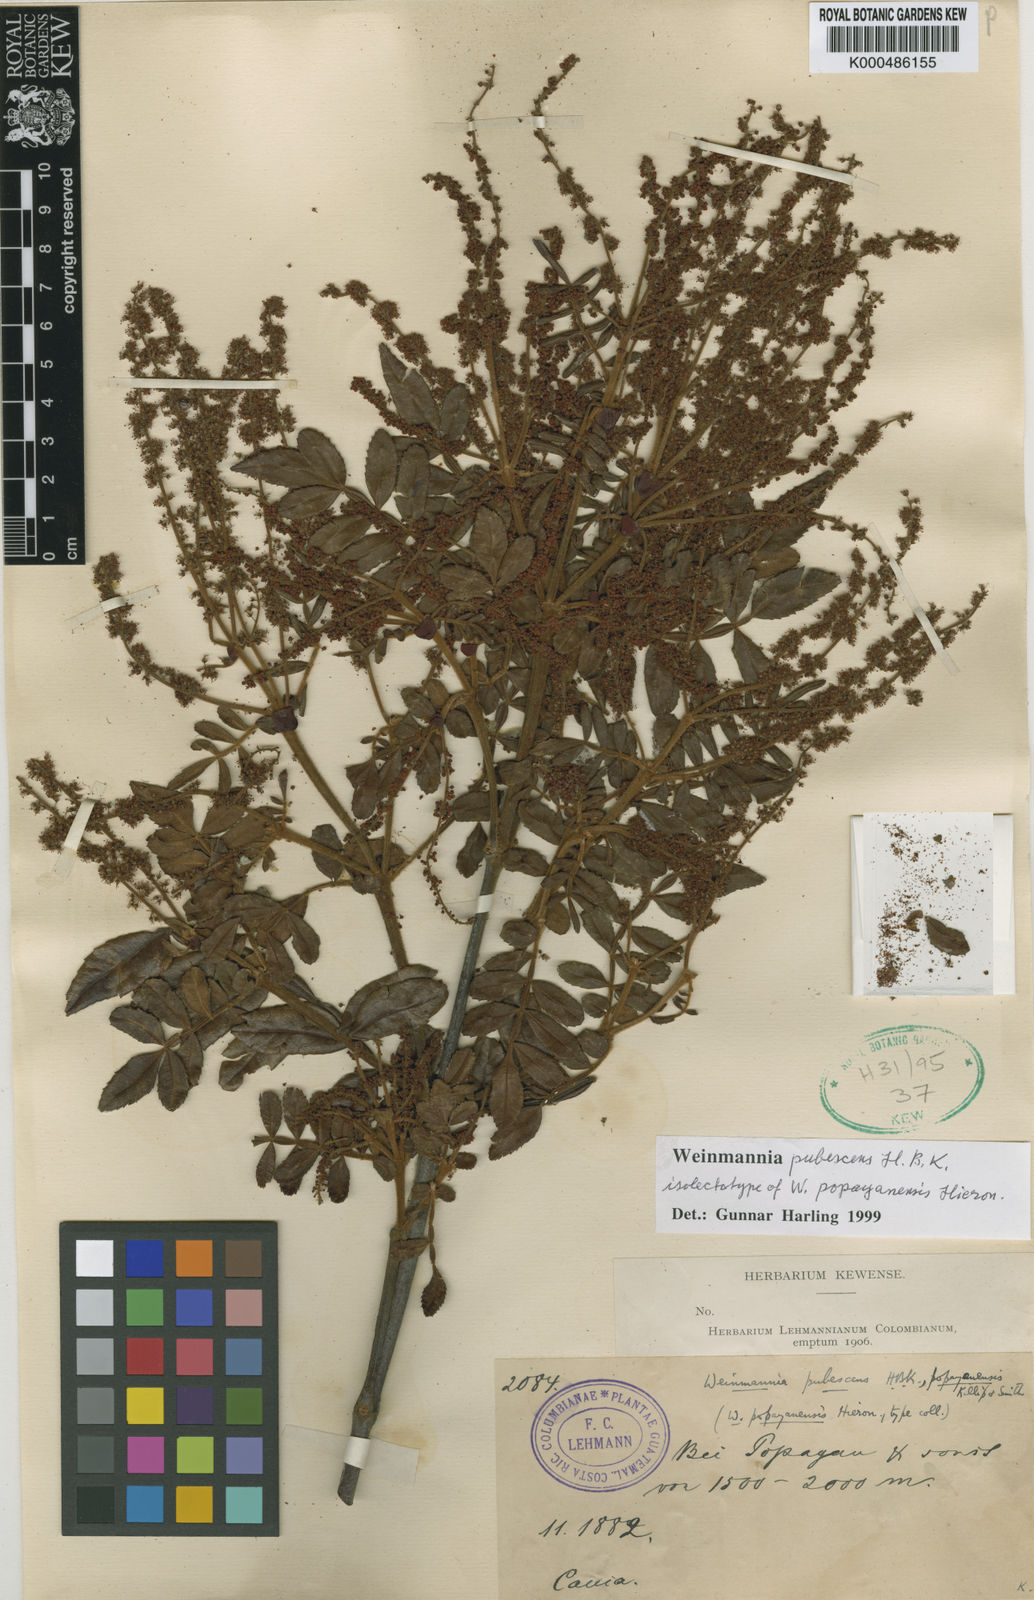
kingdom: Plantae
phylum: Tracheophyta
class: Magnoliopsida
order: Oxalidales
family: Cunoniaceae
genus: Weinmannia
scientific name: Weinmannia pubescens
